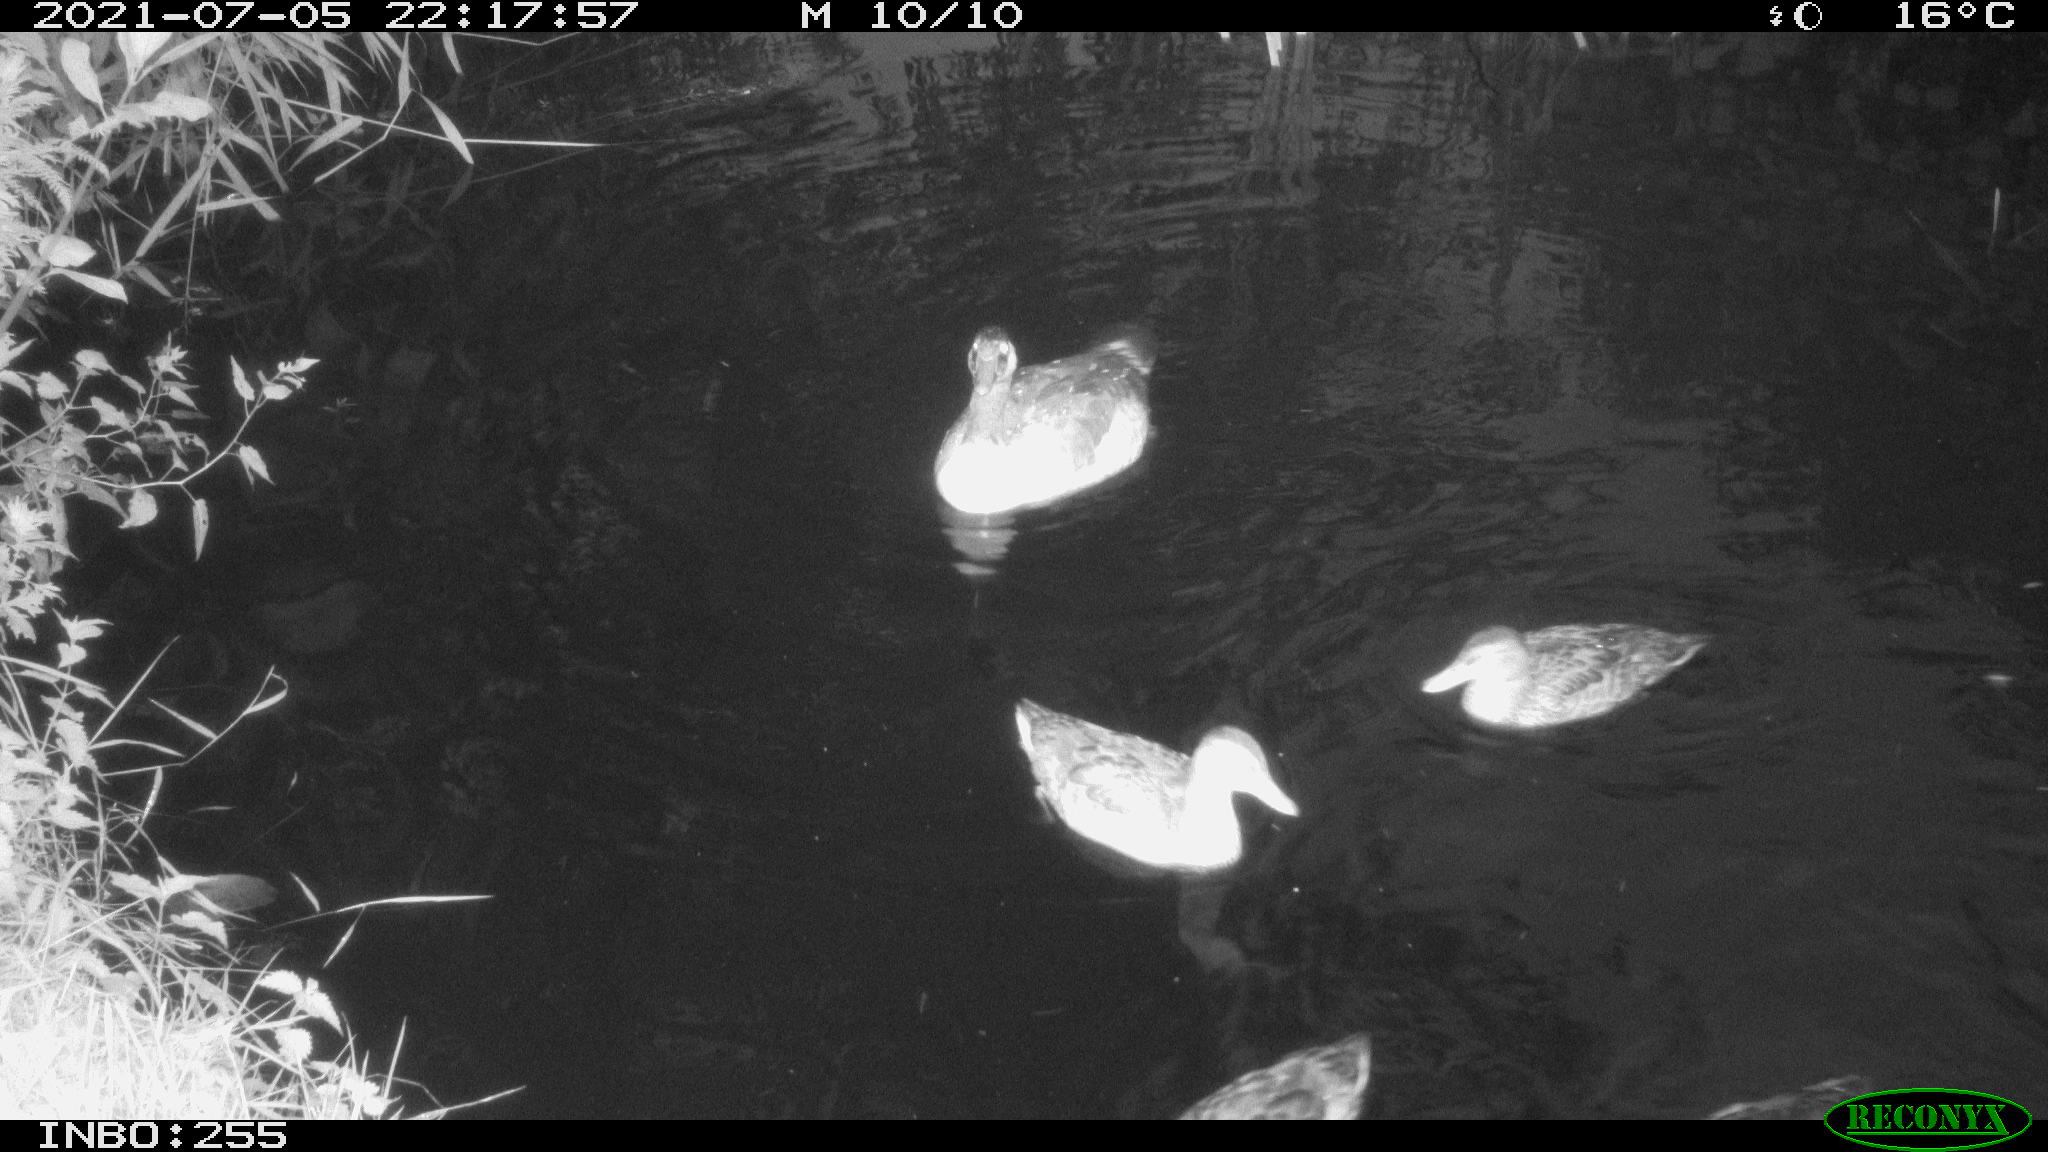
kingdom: Animalia
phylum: Chordata
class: Aves
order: Anseriformes
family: Anatidae
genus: Anas
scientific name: Anas platyrhynchos
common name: Mallard
